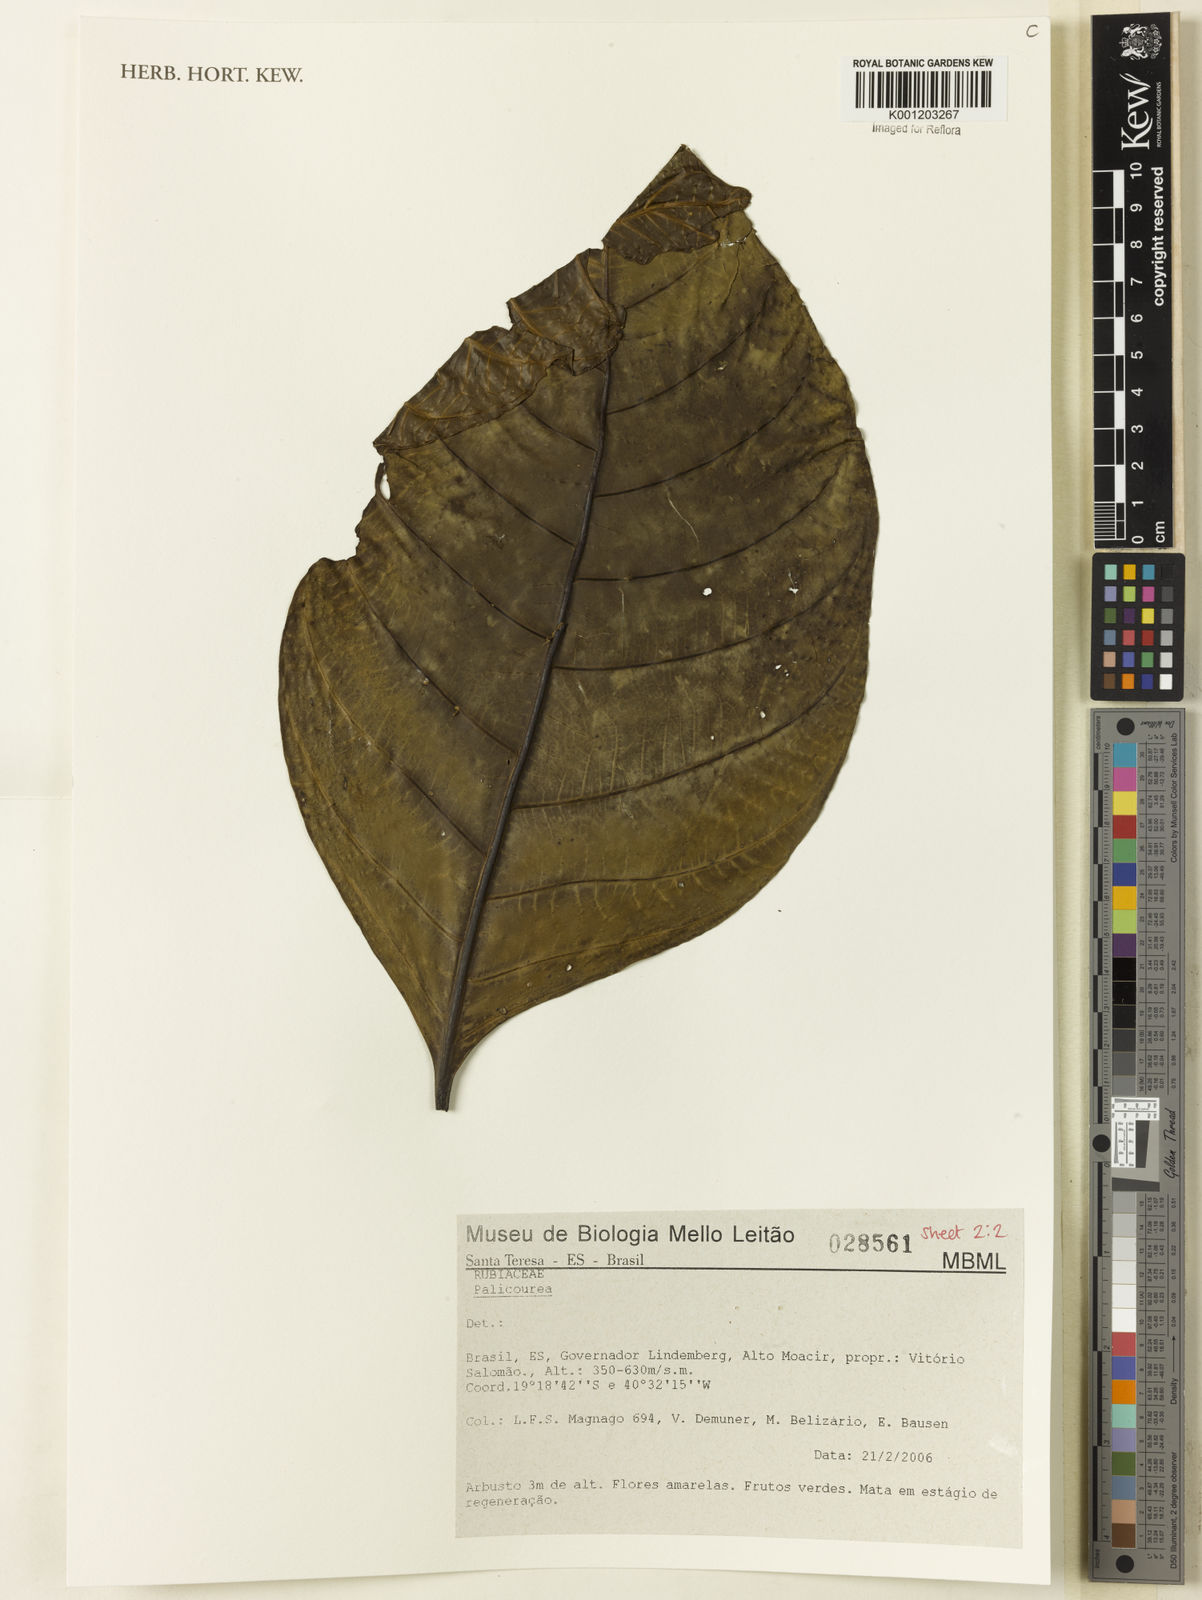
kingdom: Plantae
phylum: Tracheophyta
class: Magnoliopsida
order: Gentianales
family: Rubiaceae
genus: Palicourea
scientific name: Palicourea
